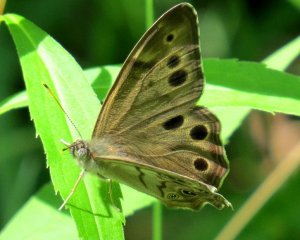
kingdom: Animalia
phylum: Arthropoda
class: Insecta
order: Lepidoptera
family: Nymphalidae
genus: Lethe
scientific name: Lethe anthedon
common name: Northern Pearly-Eye
